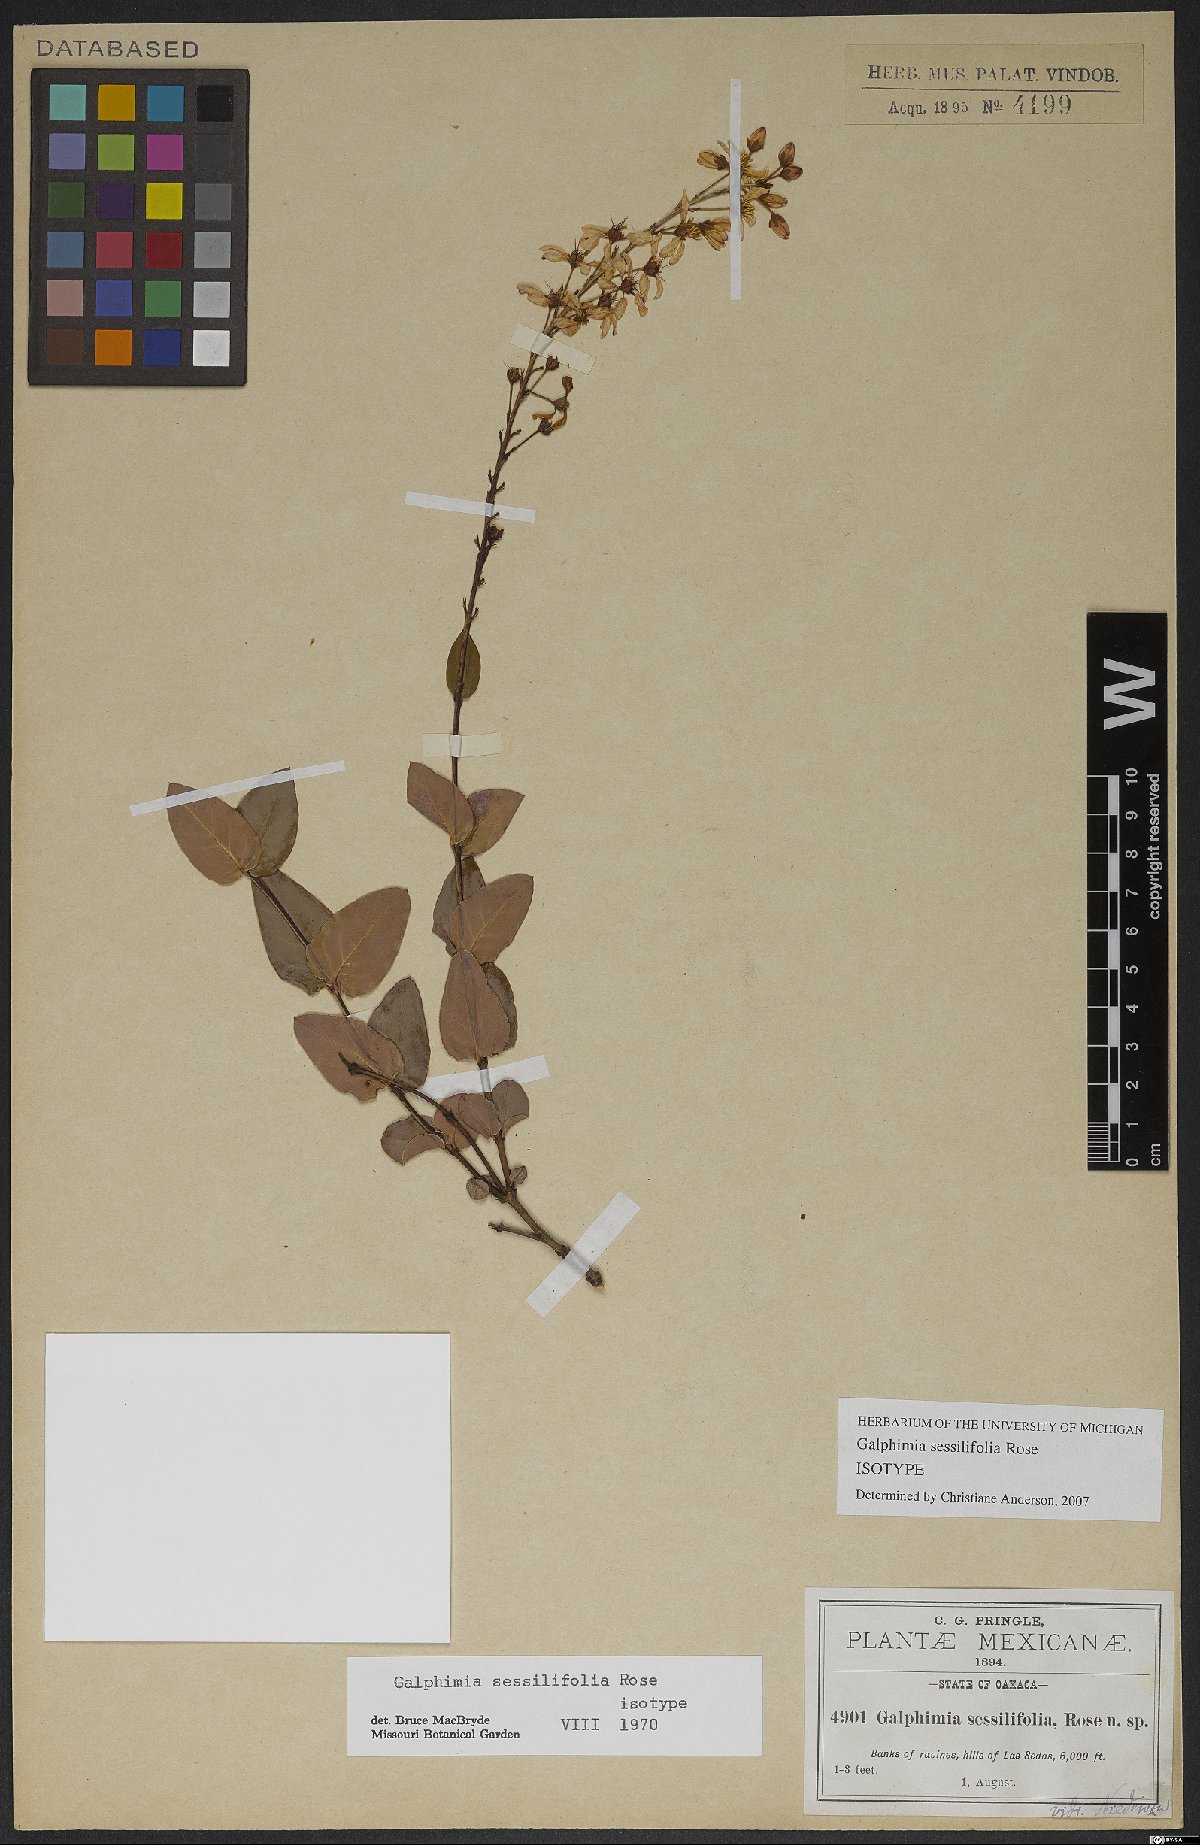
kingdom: Plantae
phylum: Tracheophyta
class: Magnoliopsida
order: Malpighiales
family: Malpighiaceae
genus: Galphimia
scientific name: Galphimia sessilifolia
